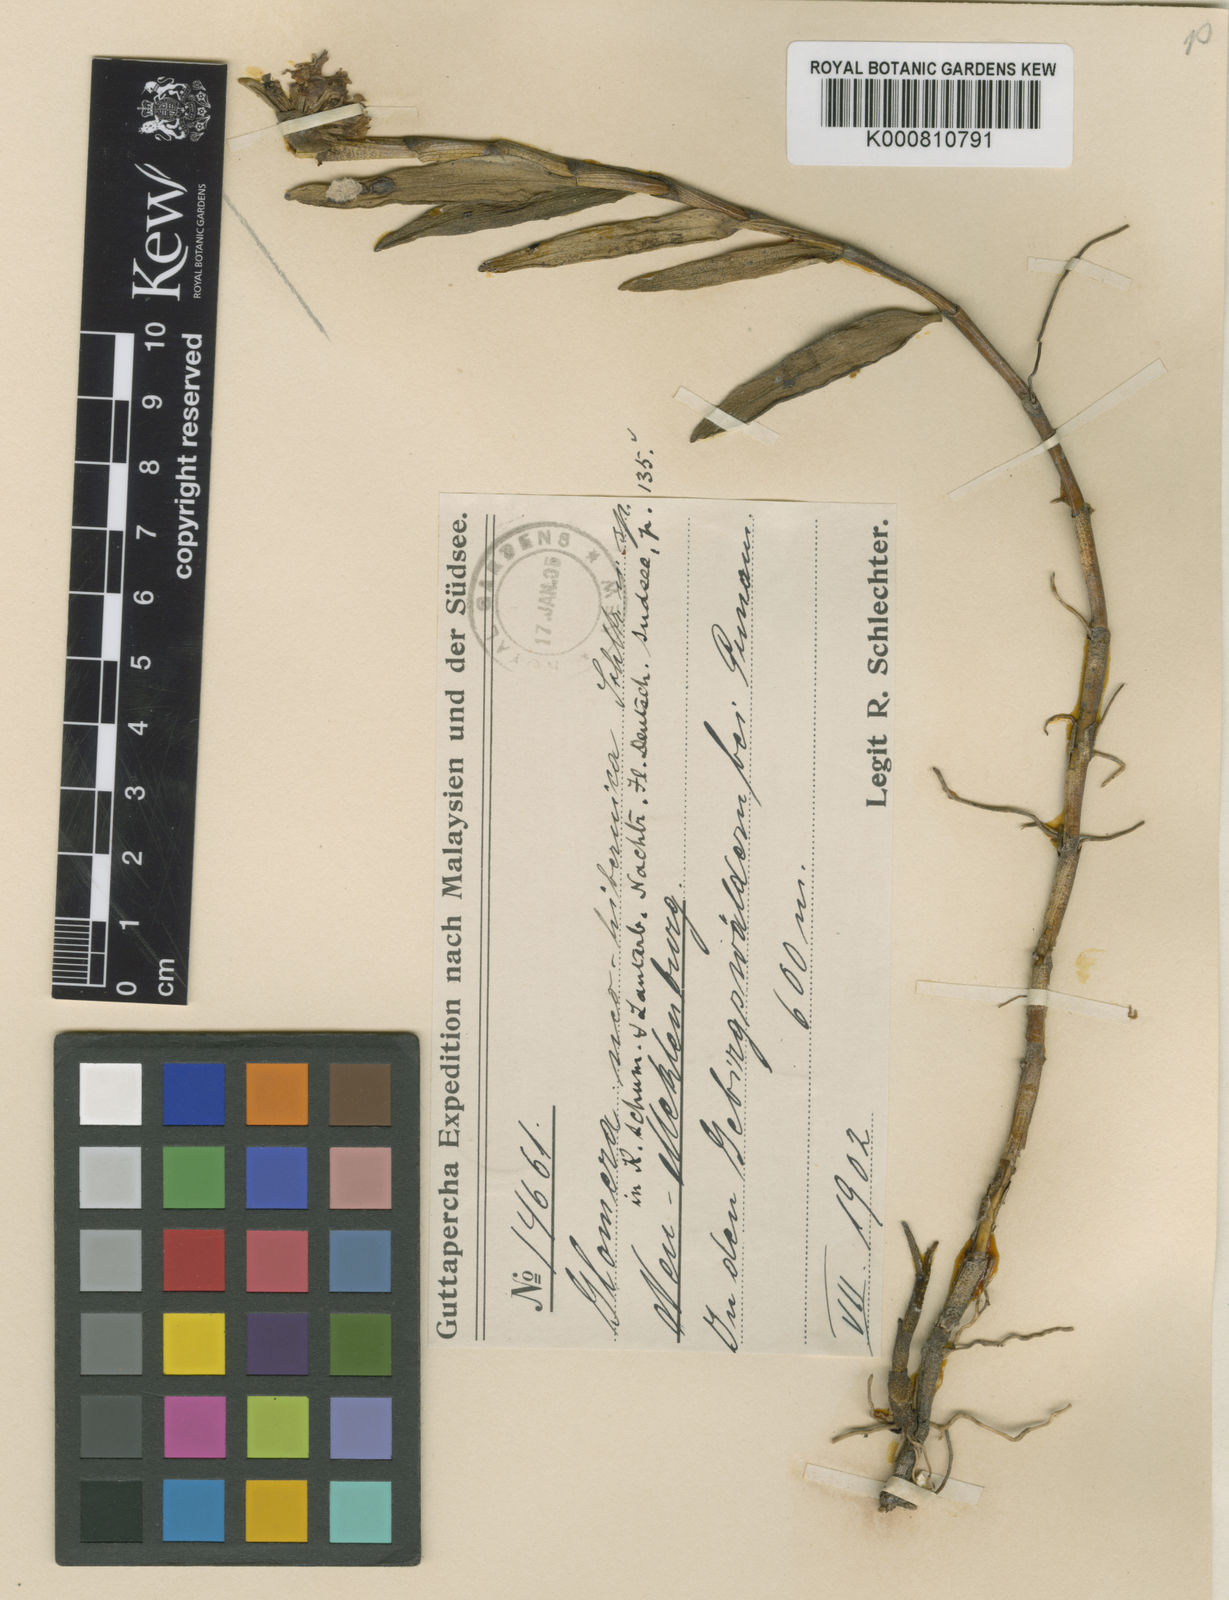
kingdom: Plantae
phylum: Tracheophyta
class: Liliopsida
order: Asparagales
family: Orchidaceae
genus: Glomera
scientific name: Glomera neohibernica
